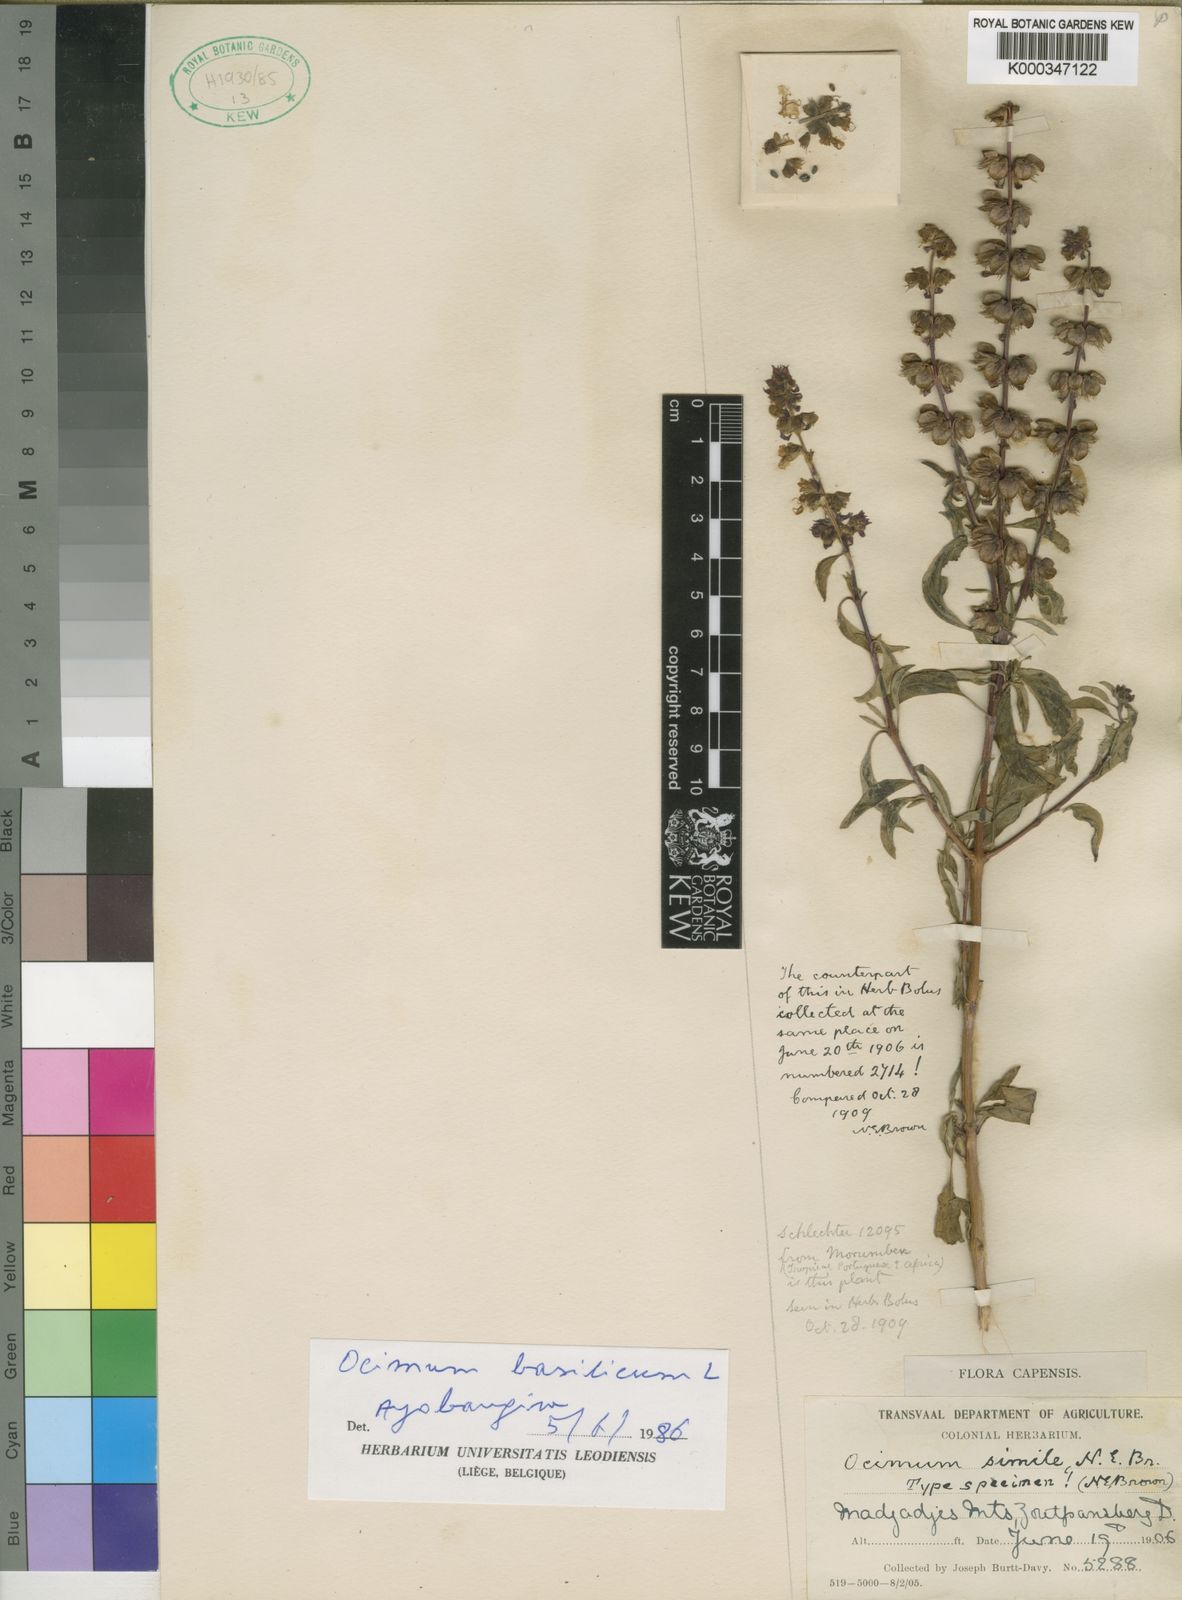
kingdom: Plantae
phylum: Tracheophyta
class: Magnoliopsida
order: Lamiales
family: Lamiaceae
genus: Ocimum
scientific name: Ocimum basilicum
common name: Sweet basil
